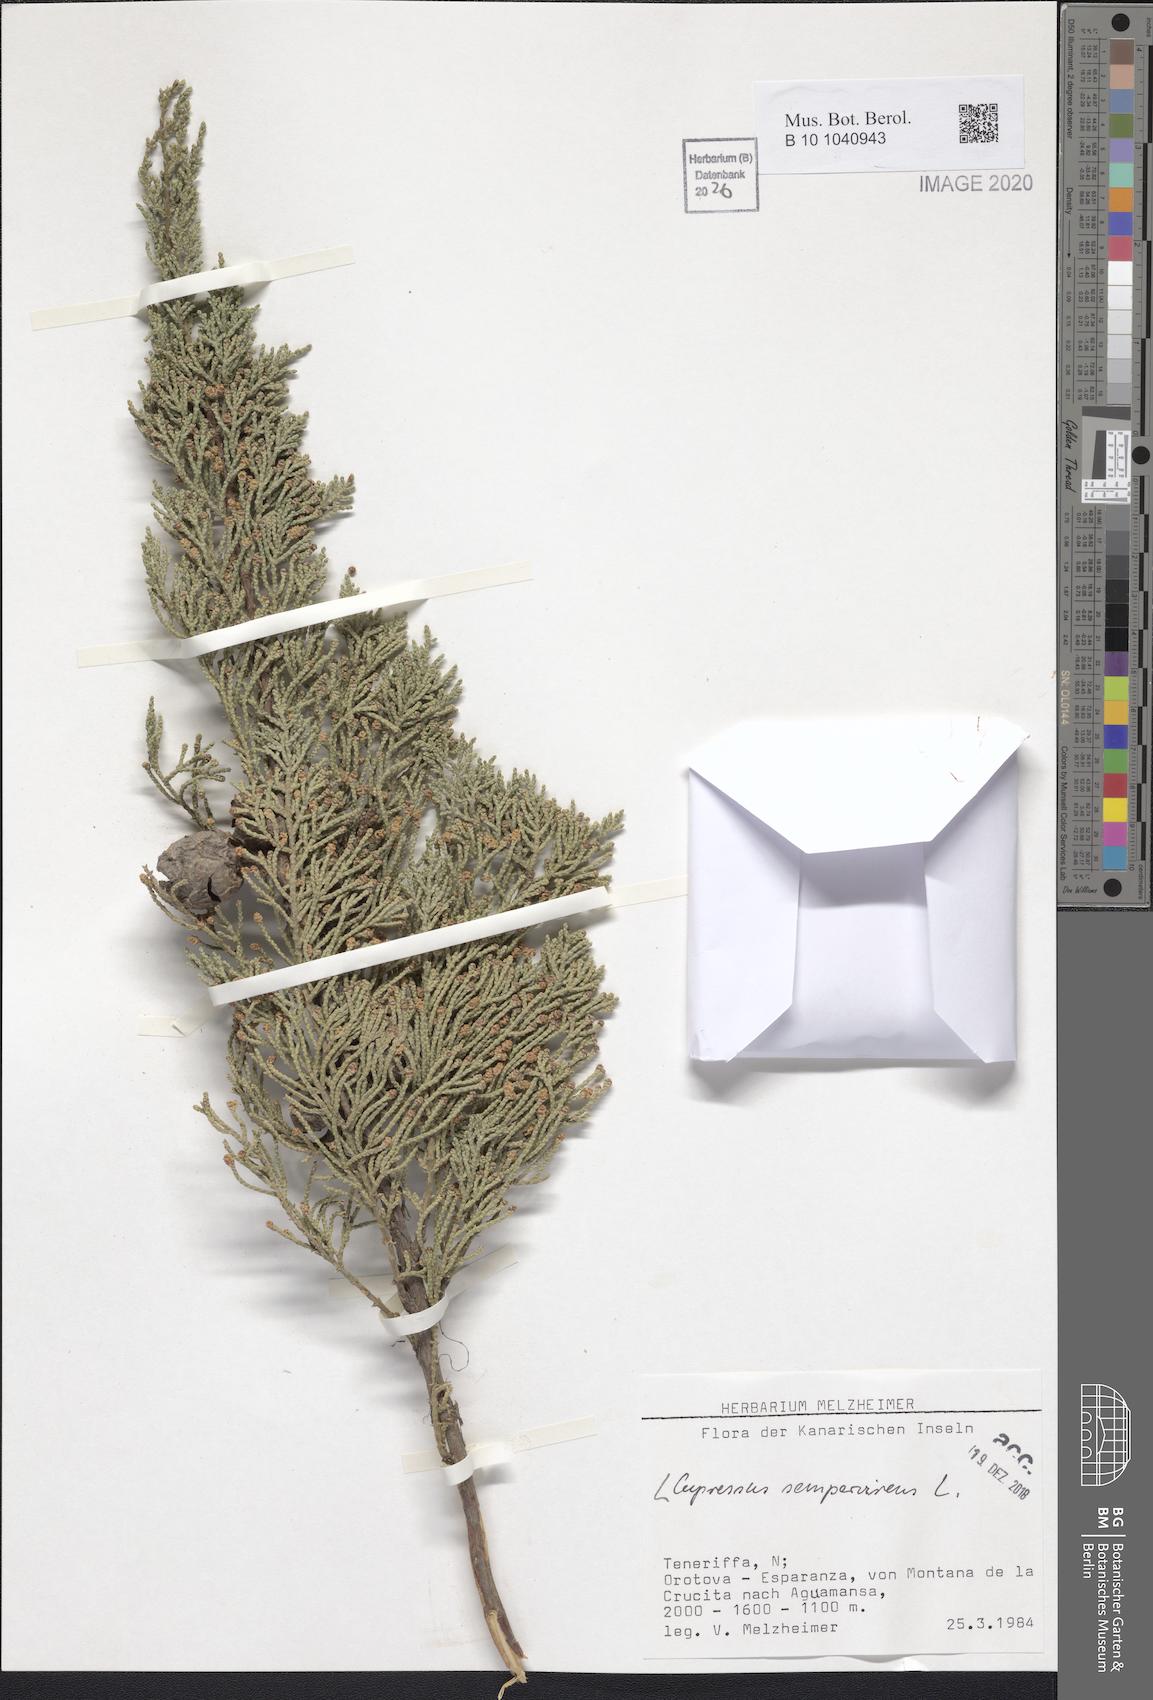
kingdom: Plantae
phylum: Tracheophyta
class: Pinopsida
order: Pinales
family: Cupressaceae
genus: Cupressus
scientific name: Cupressus sempervirens
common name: Italian cypress
